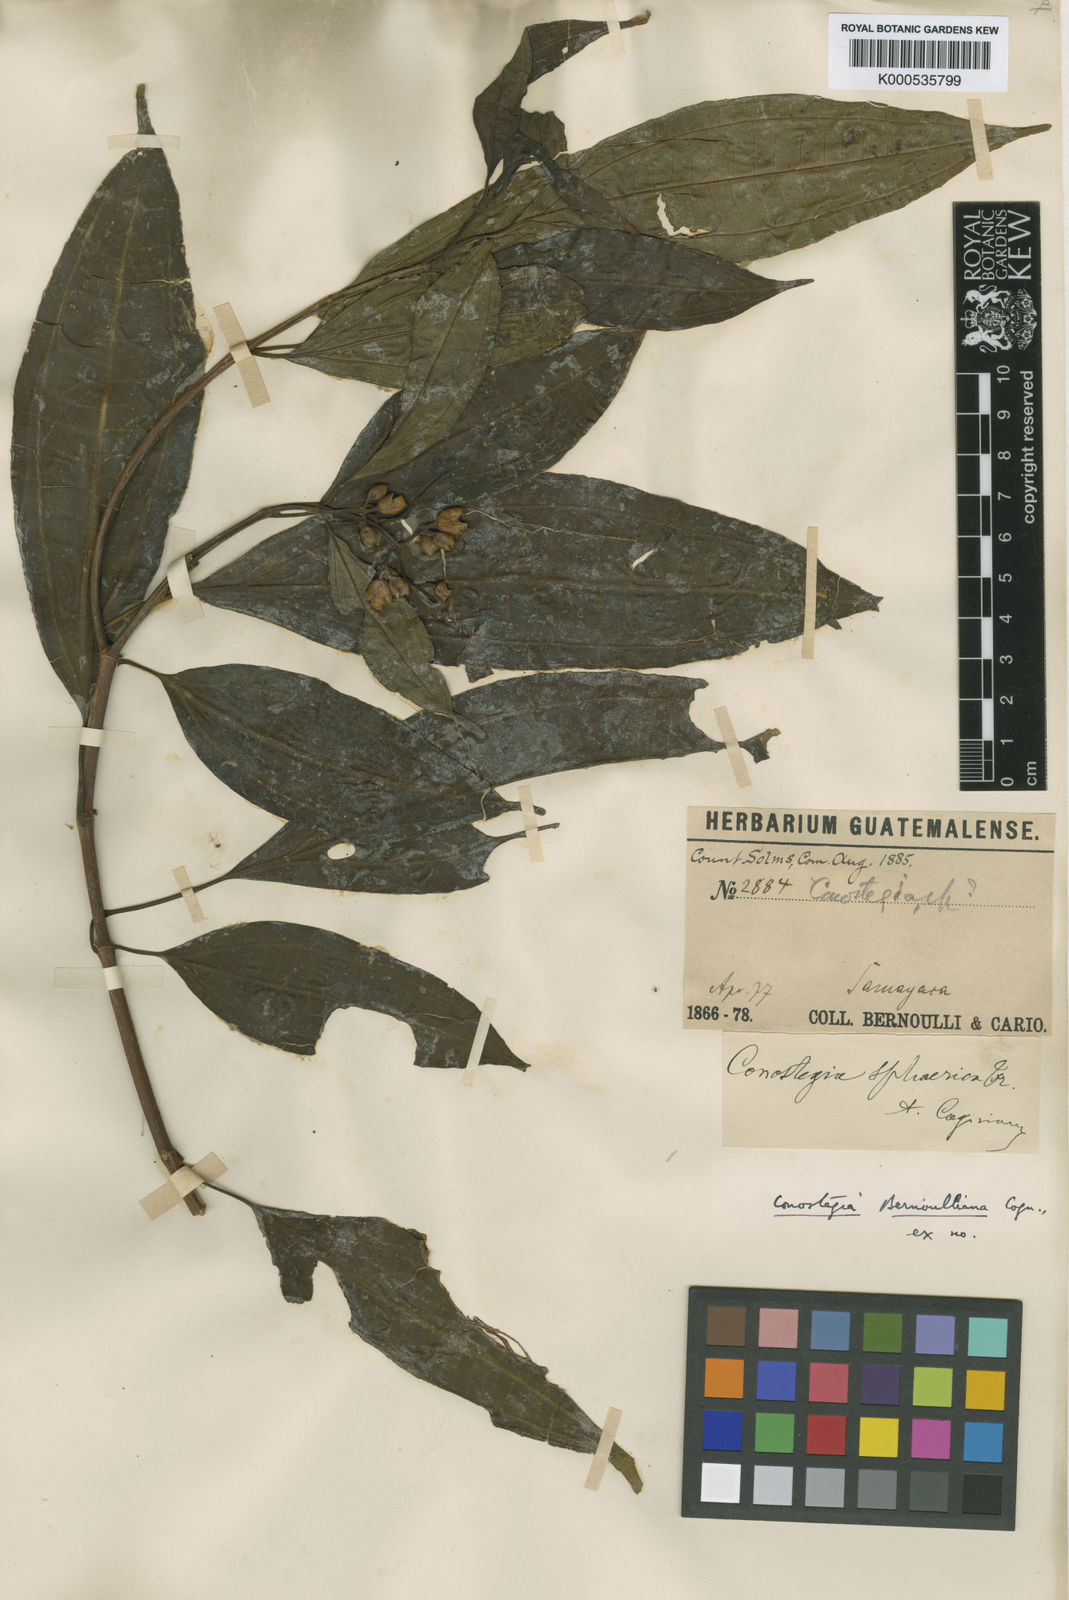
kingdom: Plantae
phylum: Tracheophyta
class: Magnoliopsida
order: Myrtales
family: Melastomataceae
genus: Miconia
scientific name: Miconia subhirsuta
